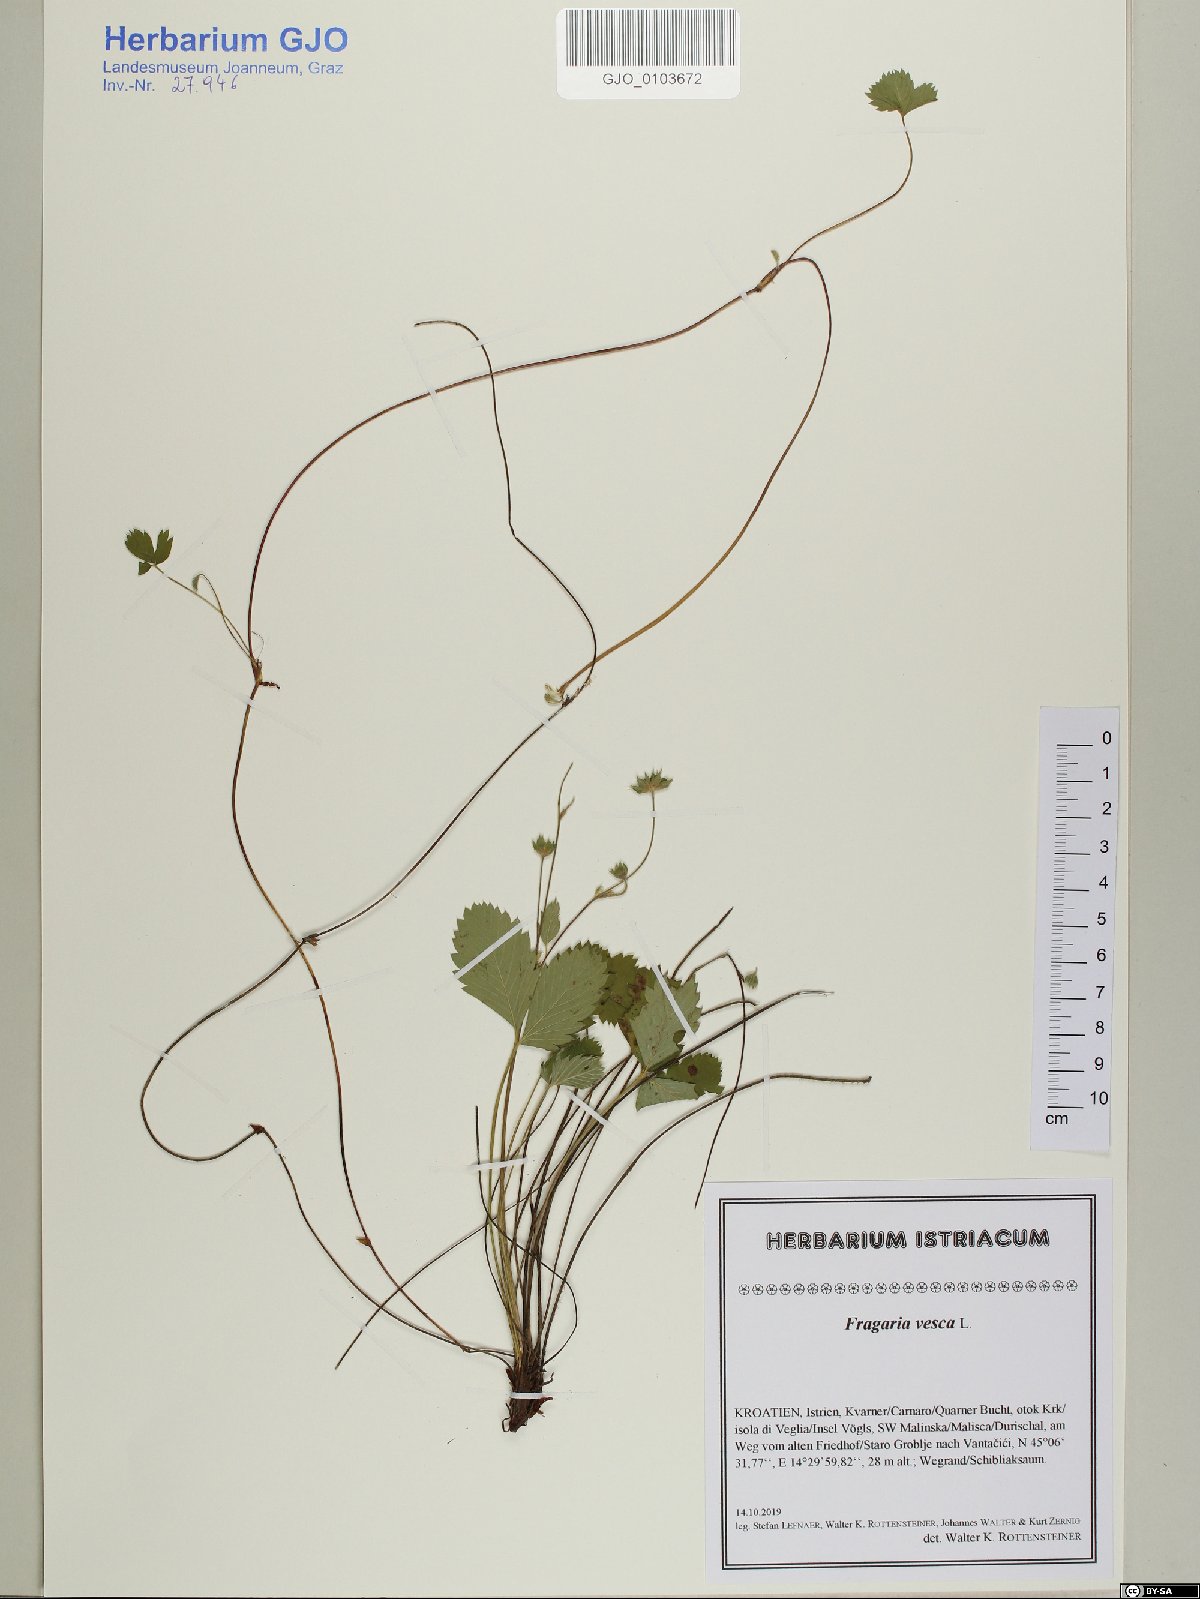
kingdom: Plantae
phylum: Tracheophyta
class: Magnoliopsida
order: Rosales
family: Rosaceae
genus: Fragaria
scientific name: Fragaria vesca
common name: Wild strawberry
